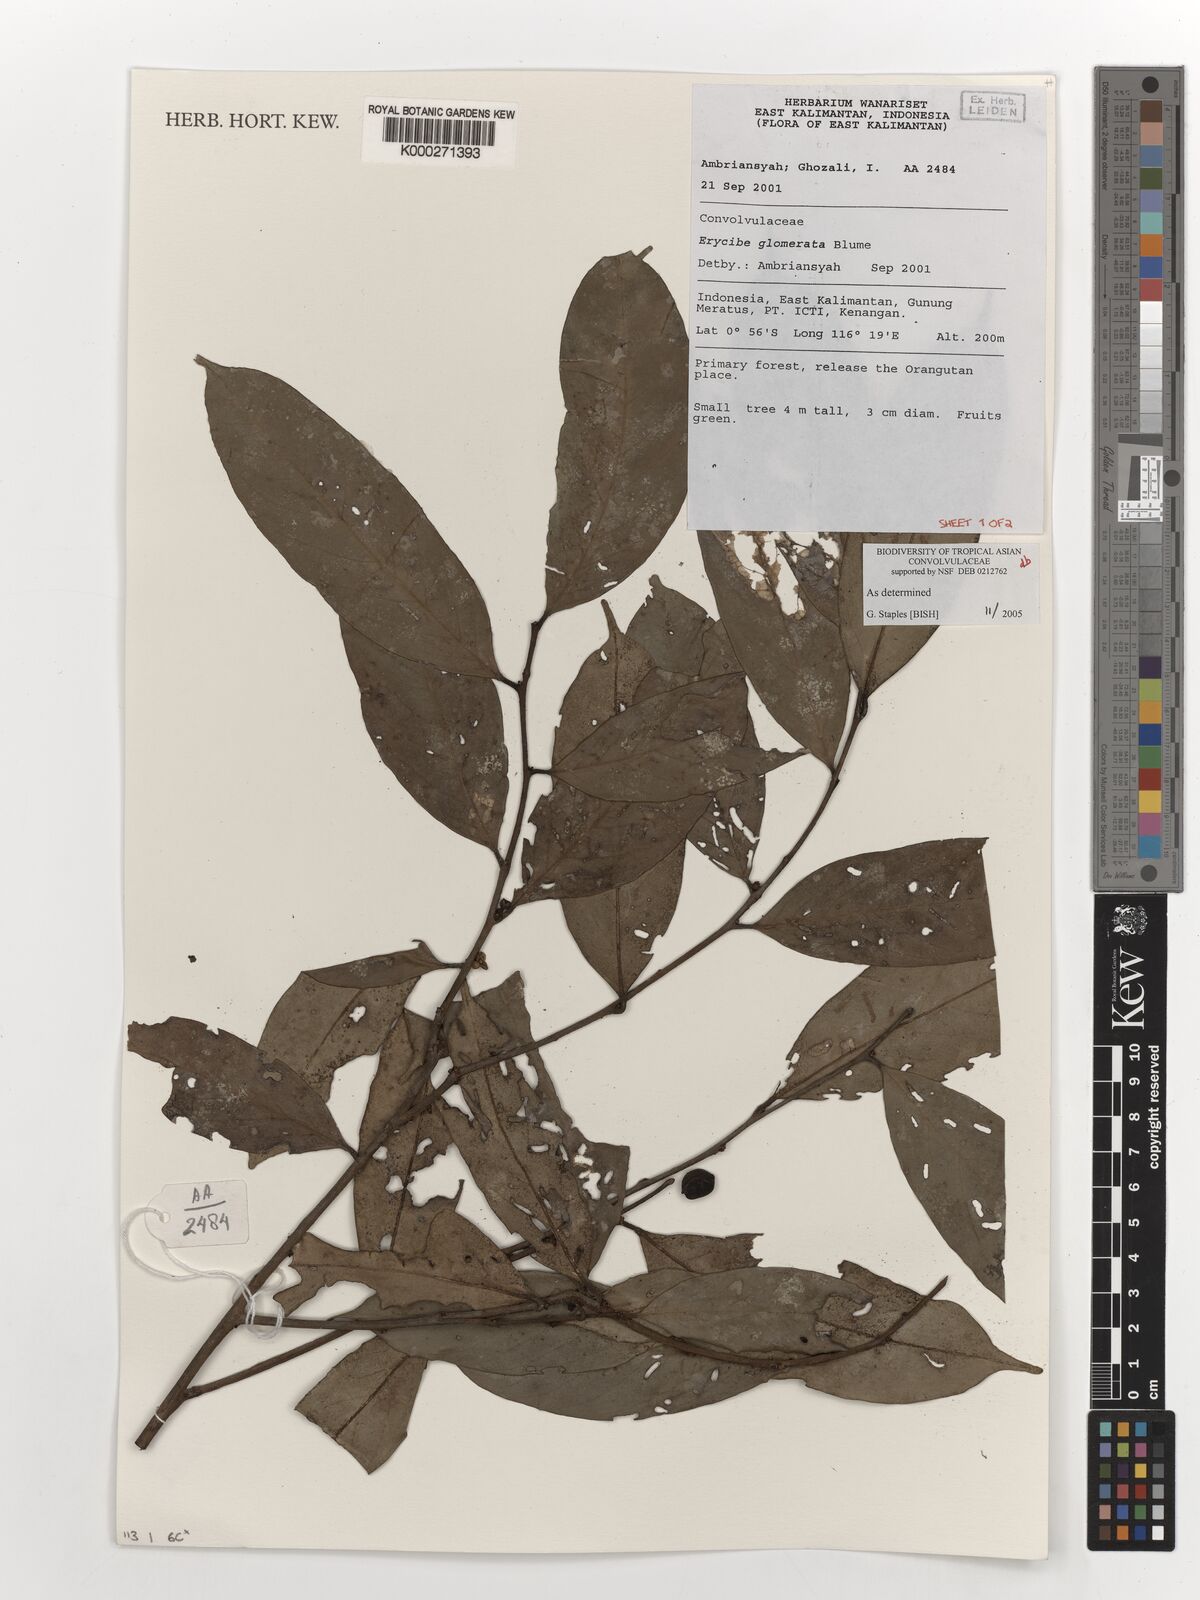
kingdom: Plantae
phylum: Tracheophyta
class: Magnoliopsida
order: Solanales
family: Convolvulaceae
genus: Erycibe
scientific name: Erycibe glomerata
